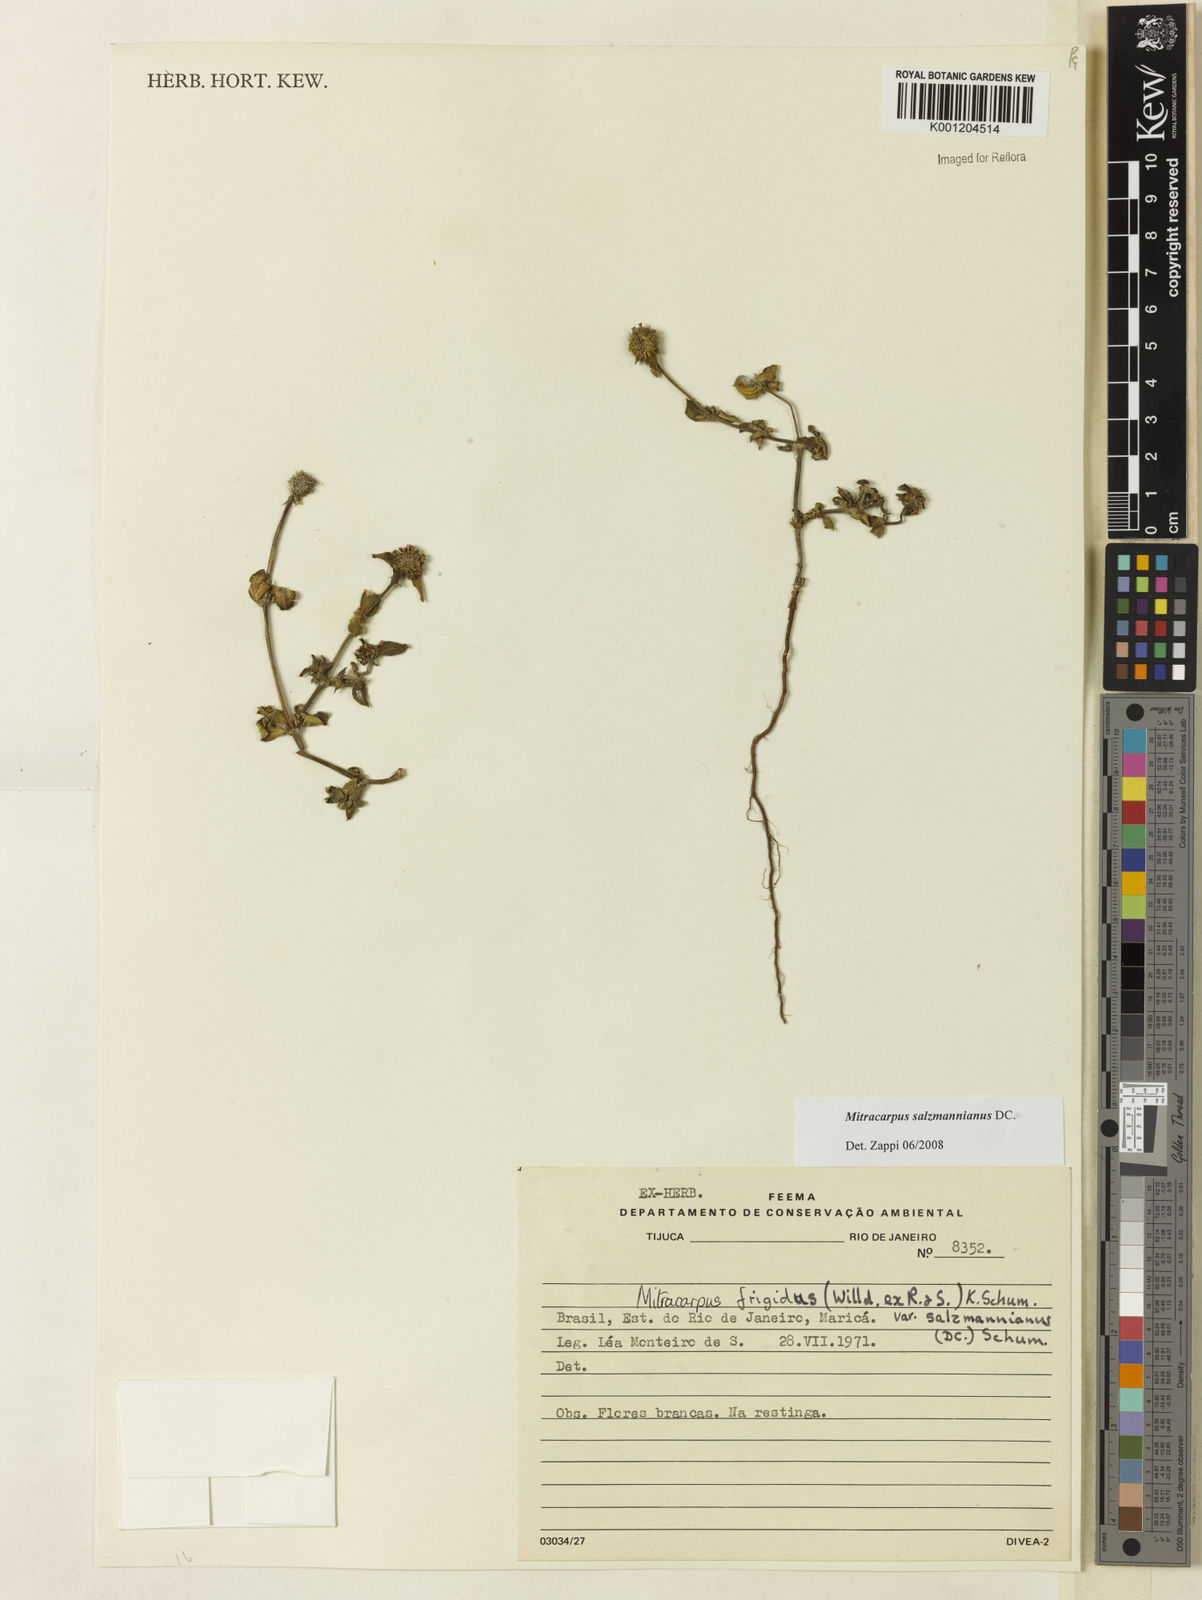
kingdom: Plantae
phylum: Tracheophyta
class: Magnoliopsida
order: Gentianales
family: Rubiaceae
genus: Mitracarpus
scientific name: Mitracarpus salzmannianus
